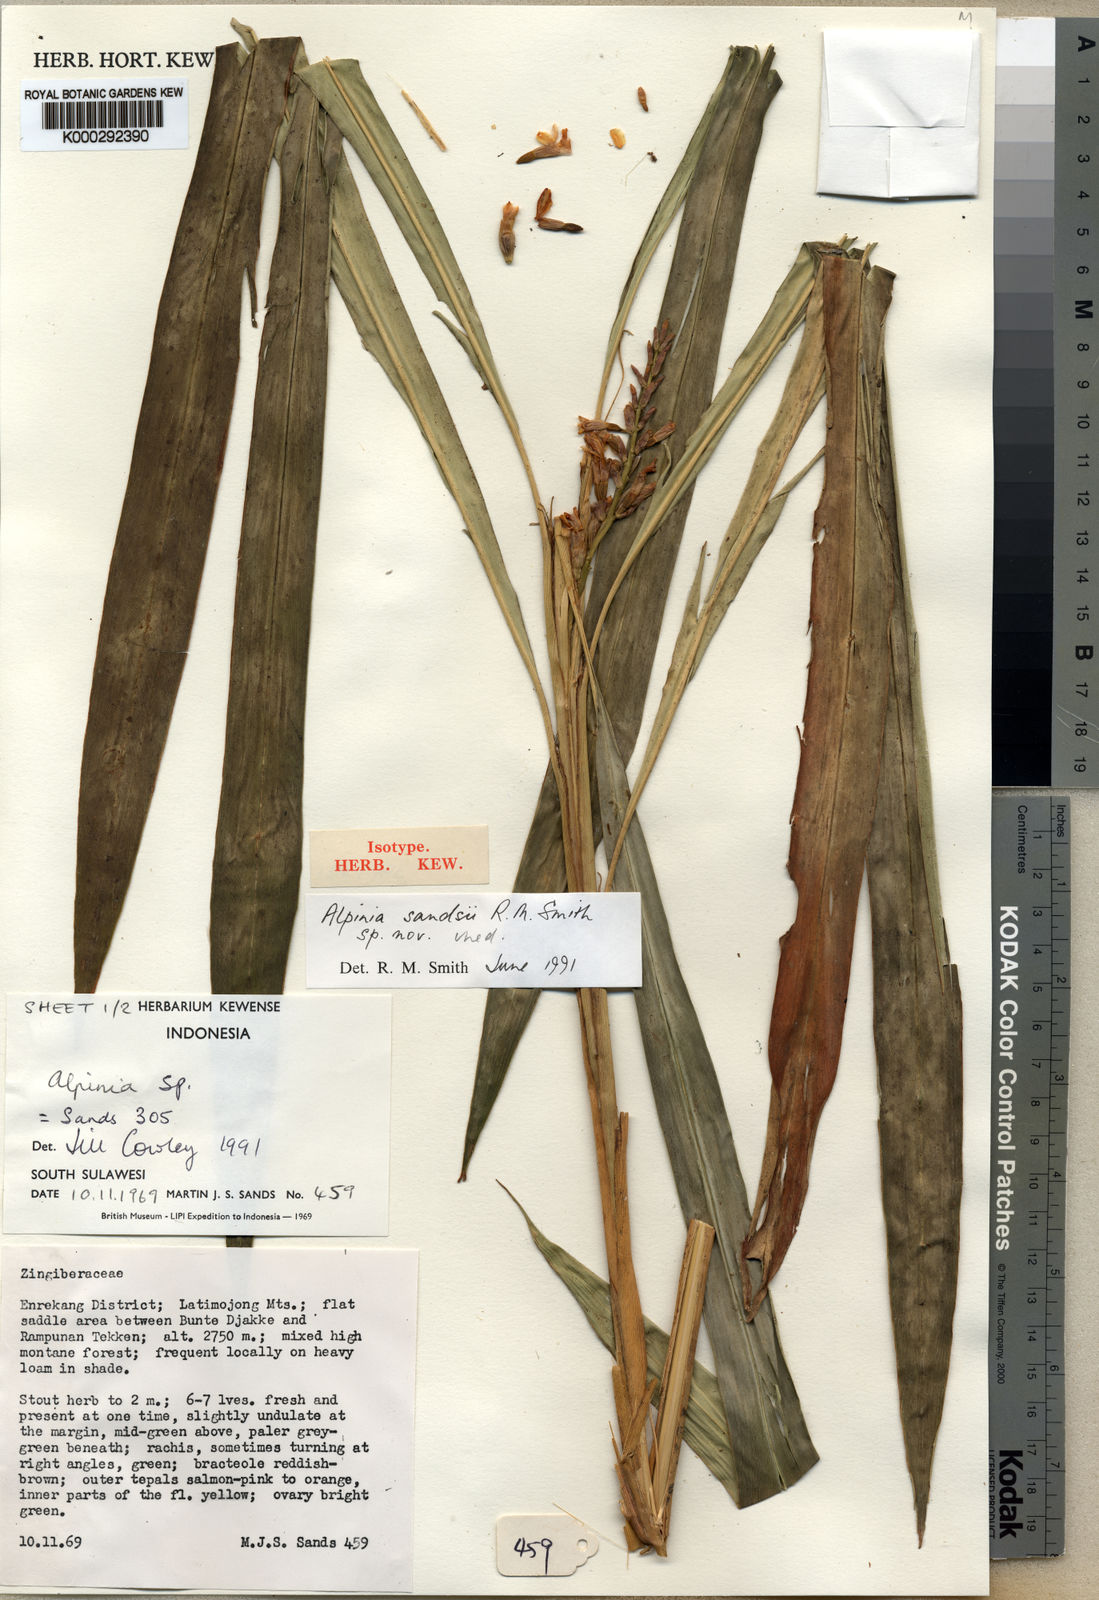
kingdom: Plantae
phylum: Tracheophyta
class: Liliopsida
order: Zingiberales
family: Zingiberaceae
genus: Alpinia
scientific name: Alpinia sandsii
